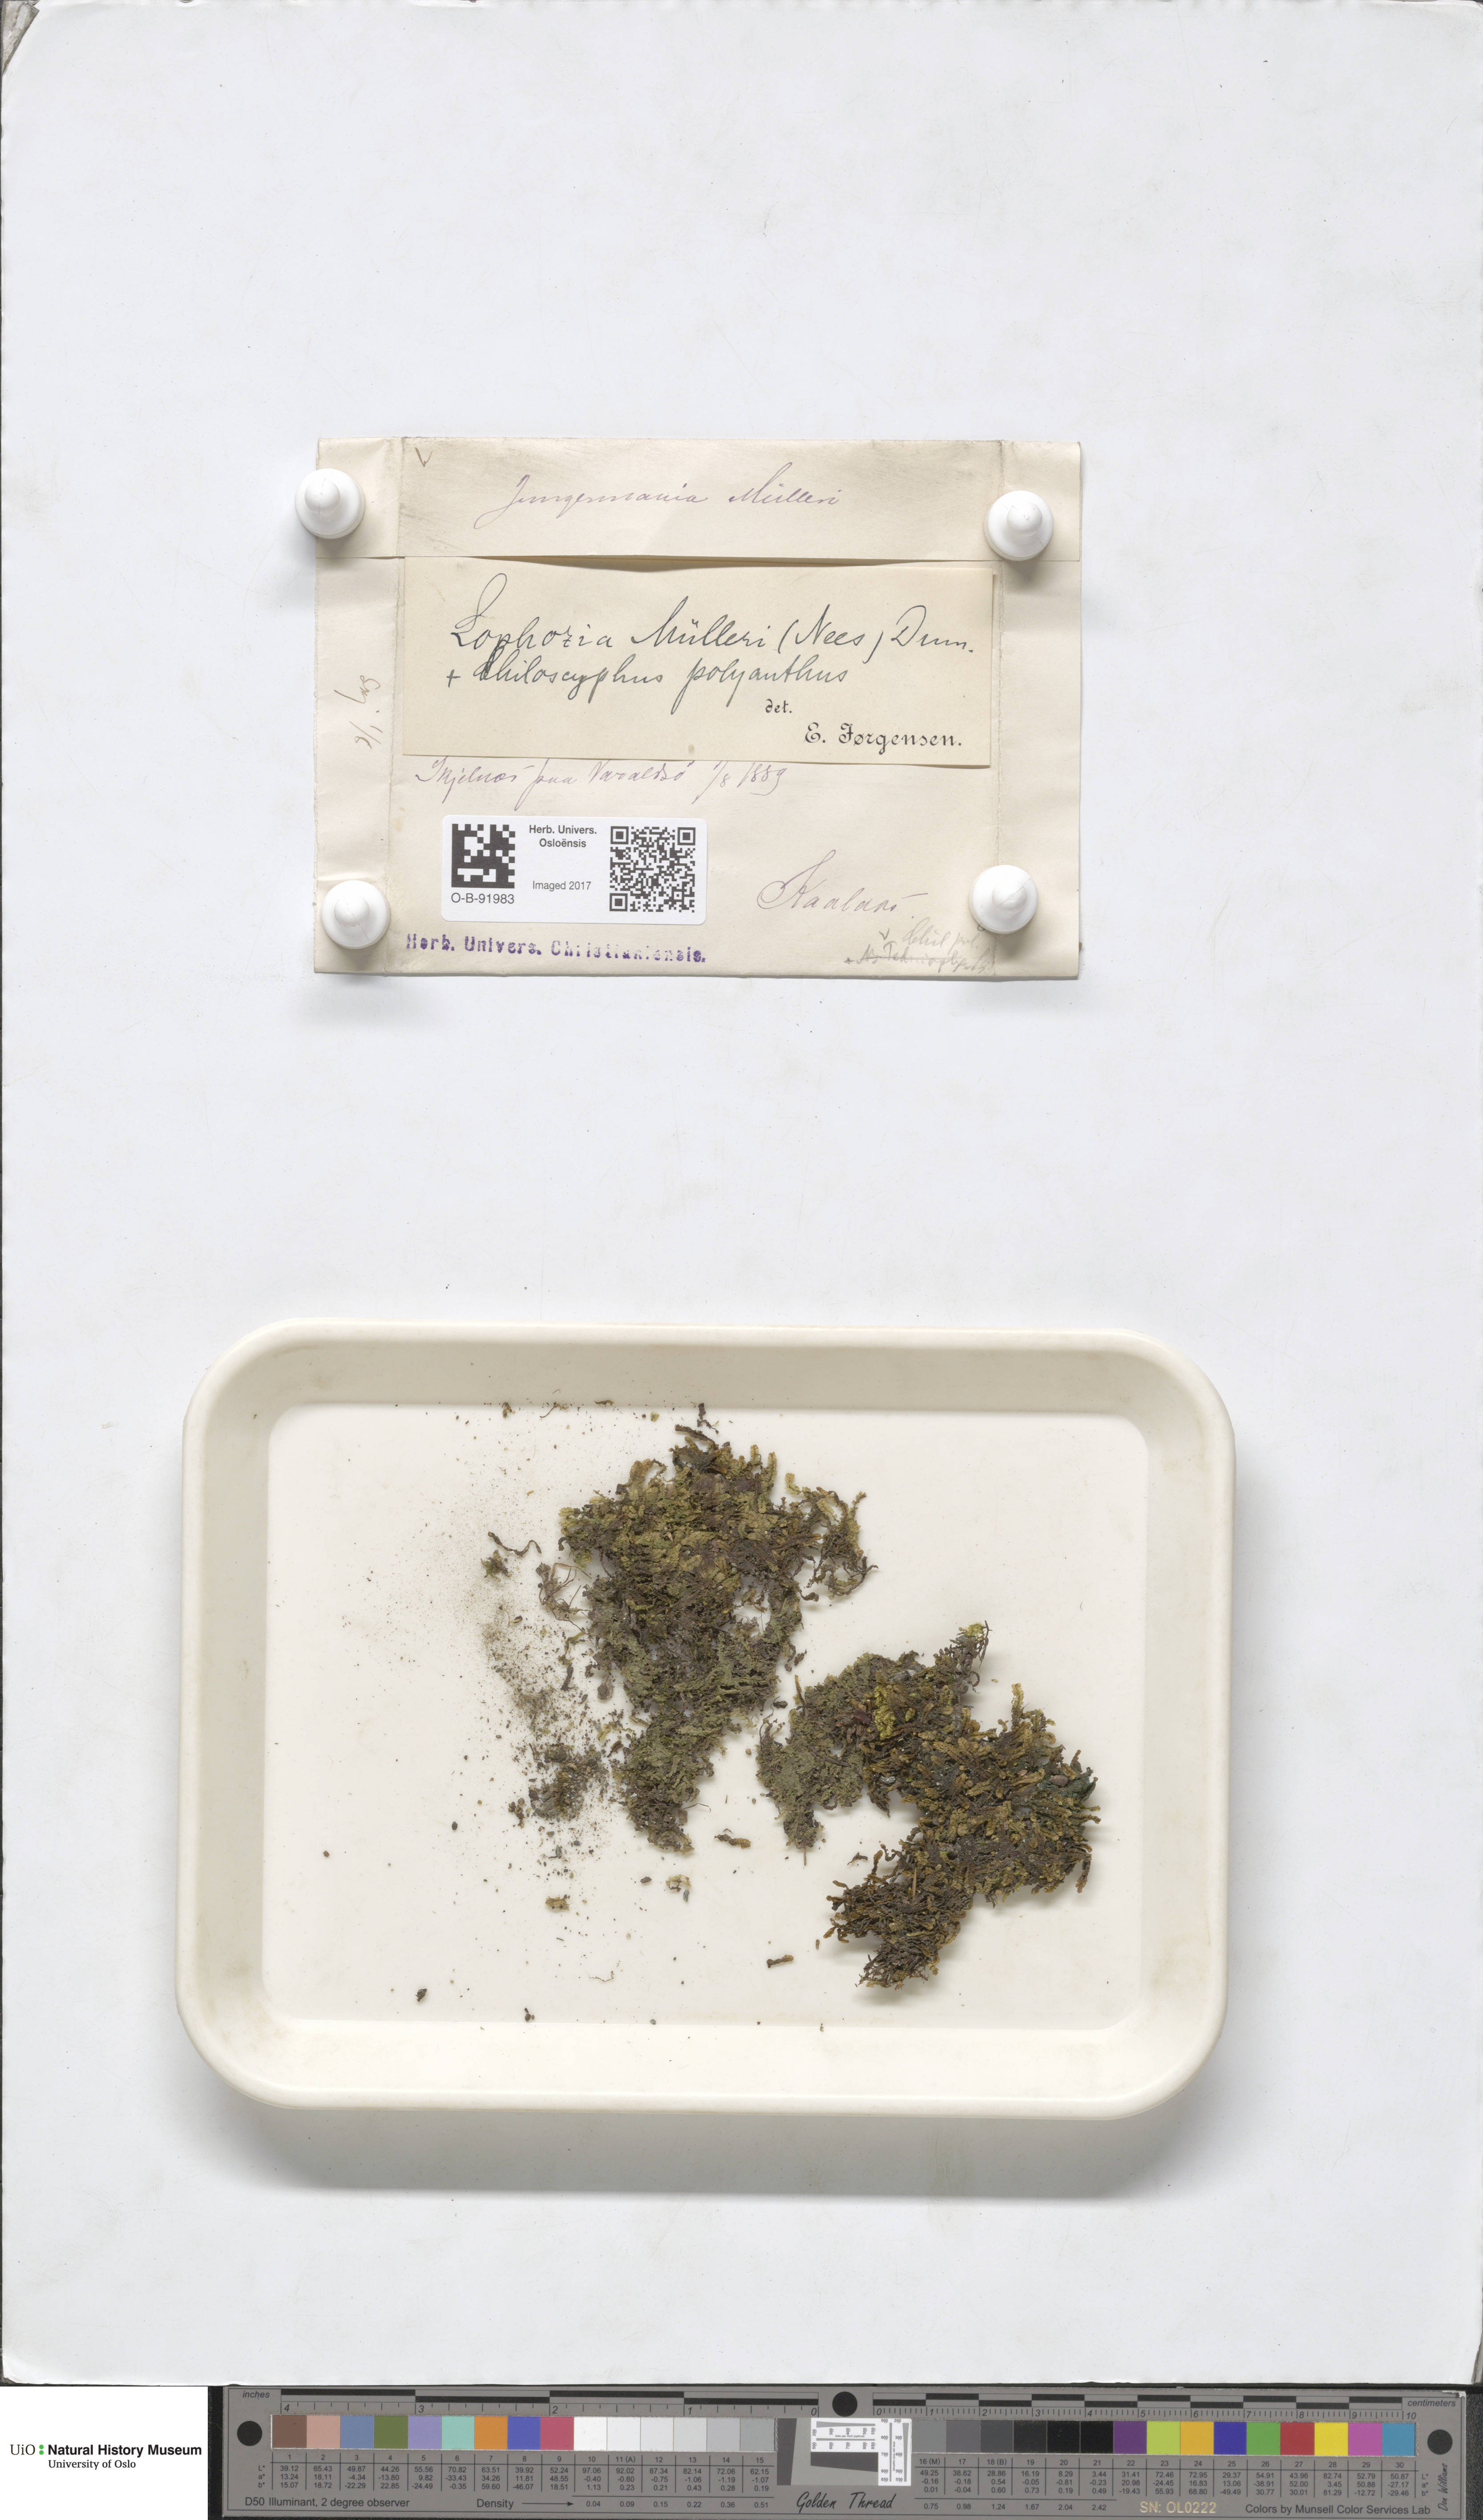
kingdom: Plantae
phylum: Marchantiophyta
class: Jungermanniopsida
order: Jungermanniales
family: Jungermanniaceae
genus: Mesoptychia
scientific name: Mesoptychia collaris
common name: Collared notchwort
